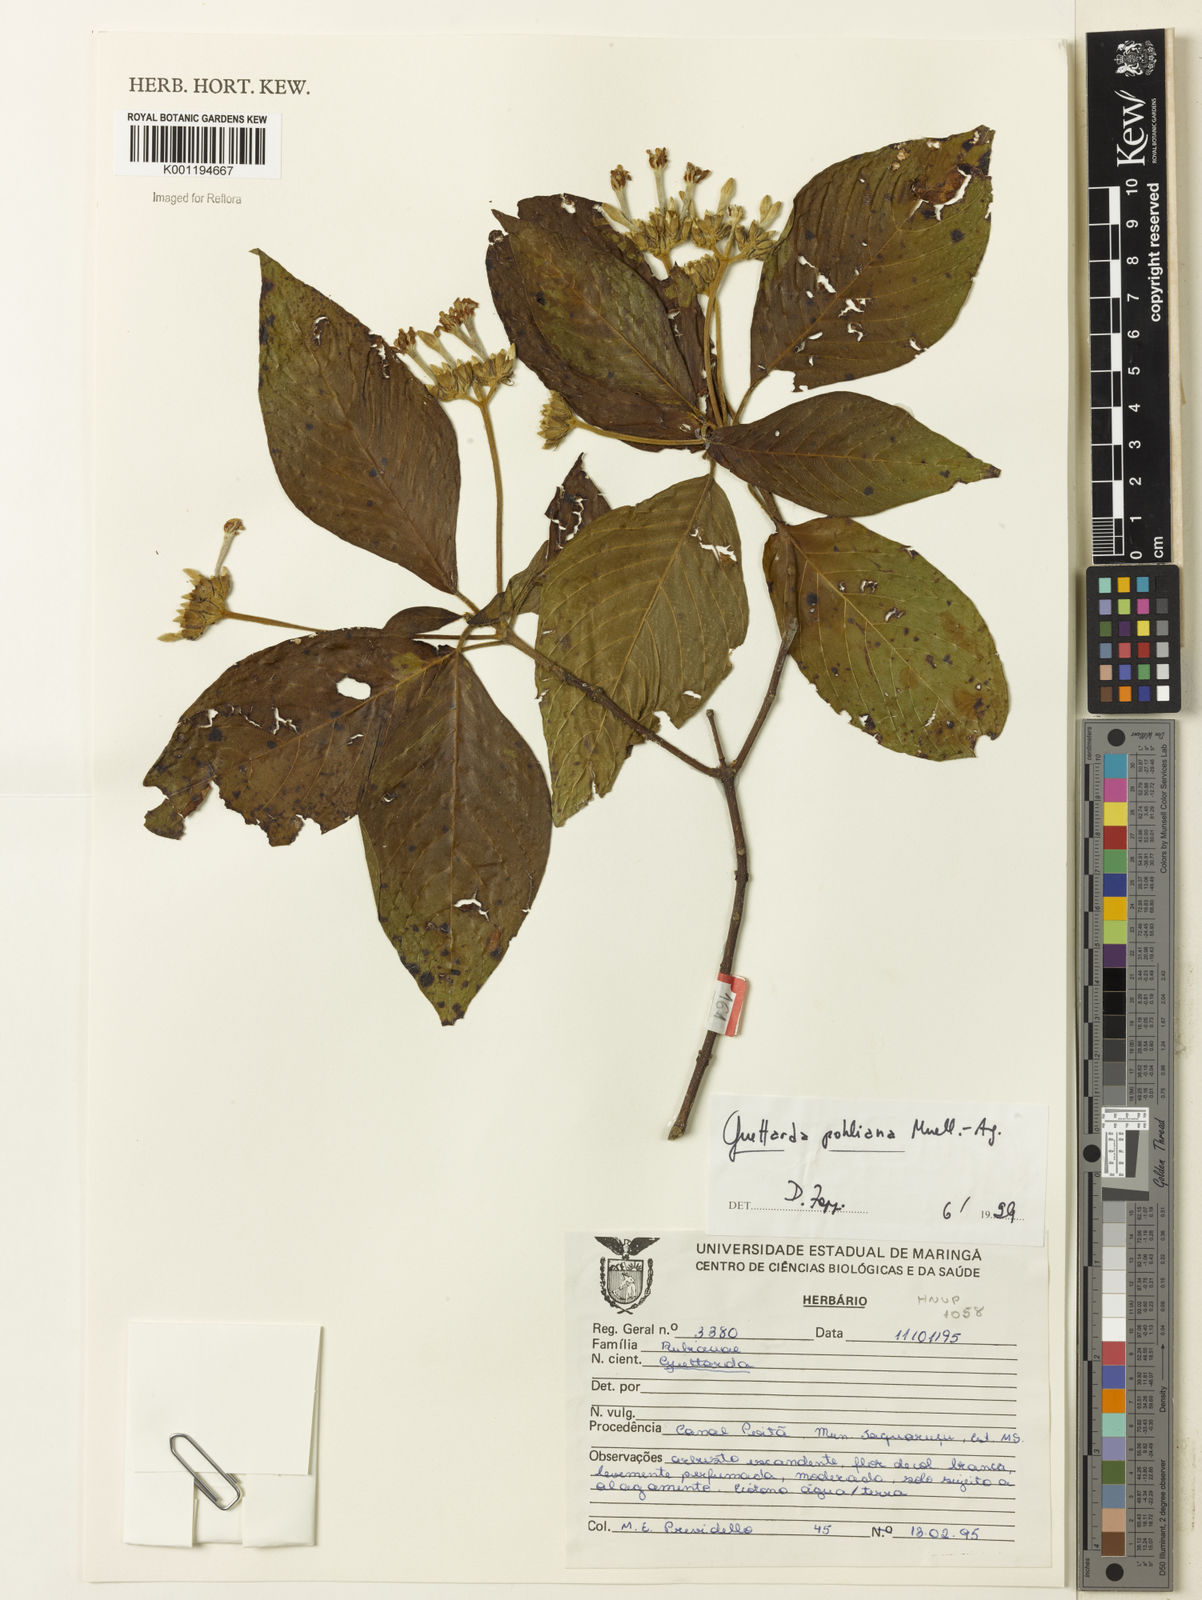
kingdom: Plantae
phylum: Tracheophyta
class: Magnoliopsida
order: Gentianales
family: Rubiaceae
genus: Guettarda
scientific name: Guettarda
